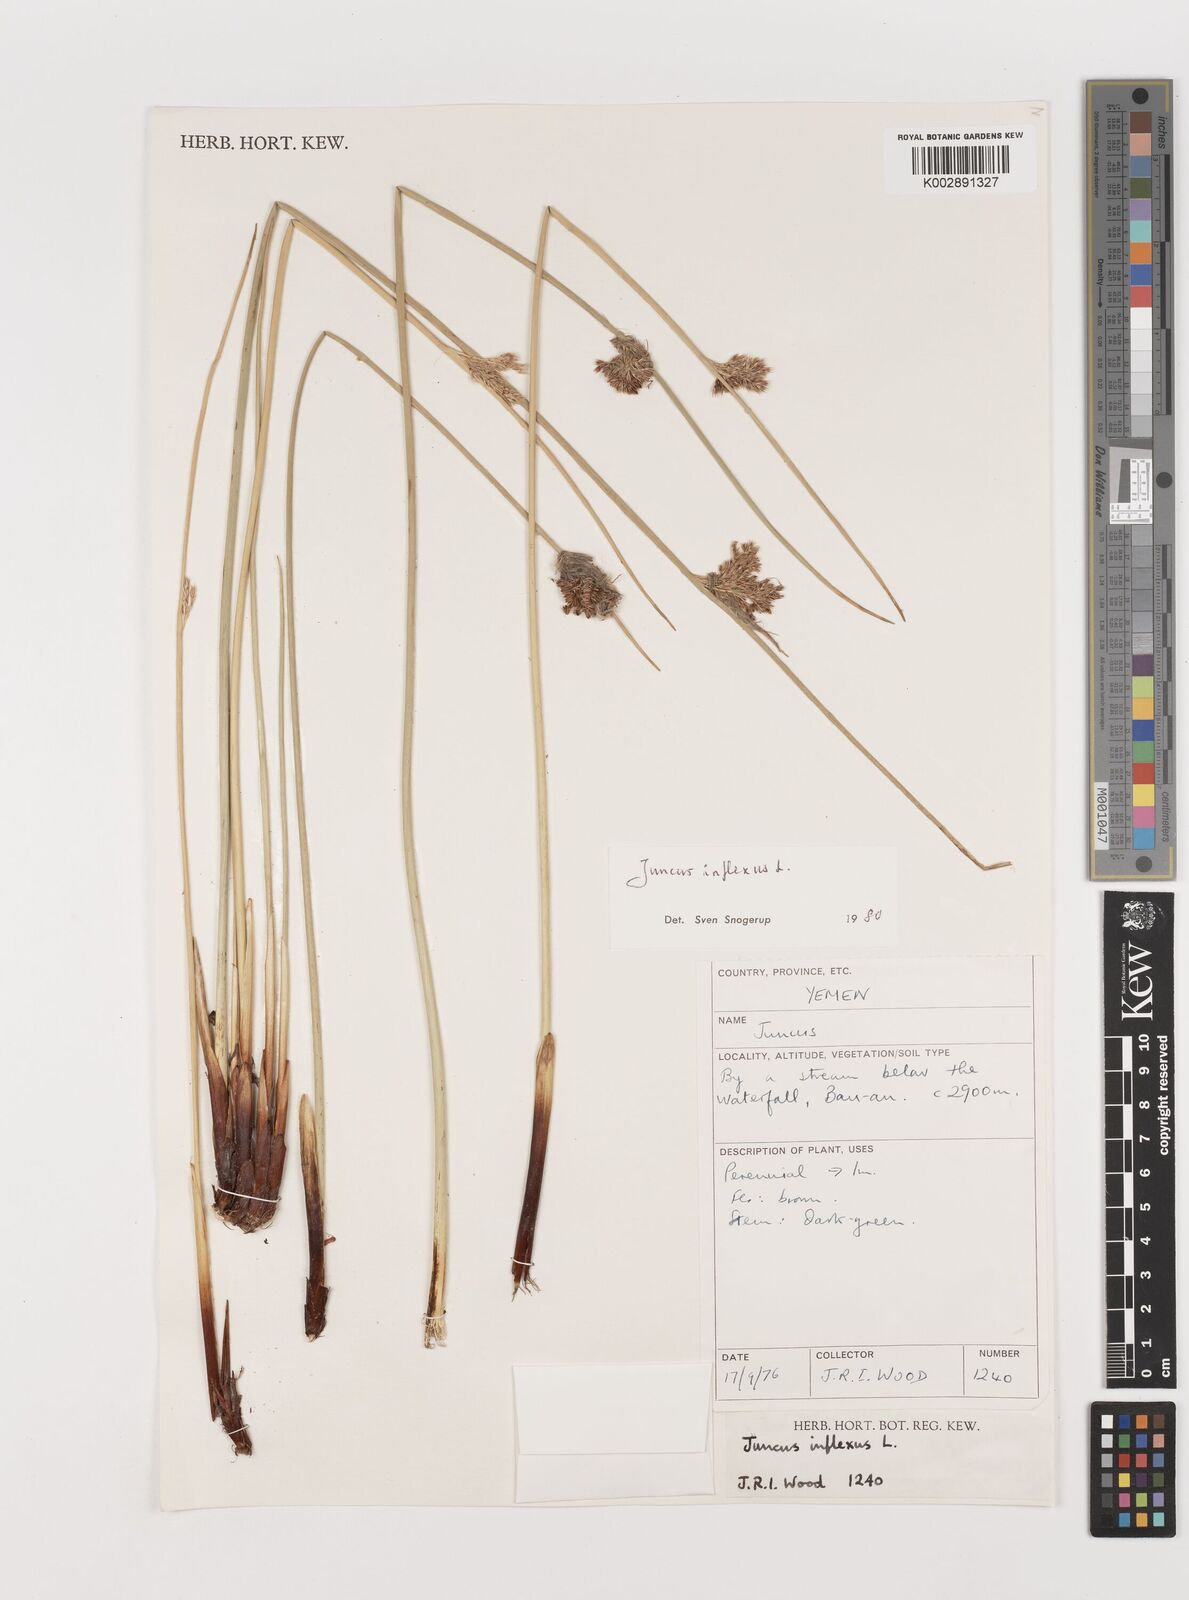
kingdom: Plantae
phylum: Tracheophyta
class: Liliopsida
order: Poales
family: Juncaceae
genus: Juncus
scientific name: Juncus inflexus
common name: Hard rush
